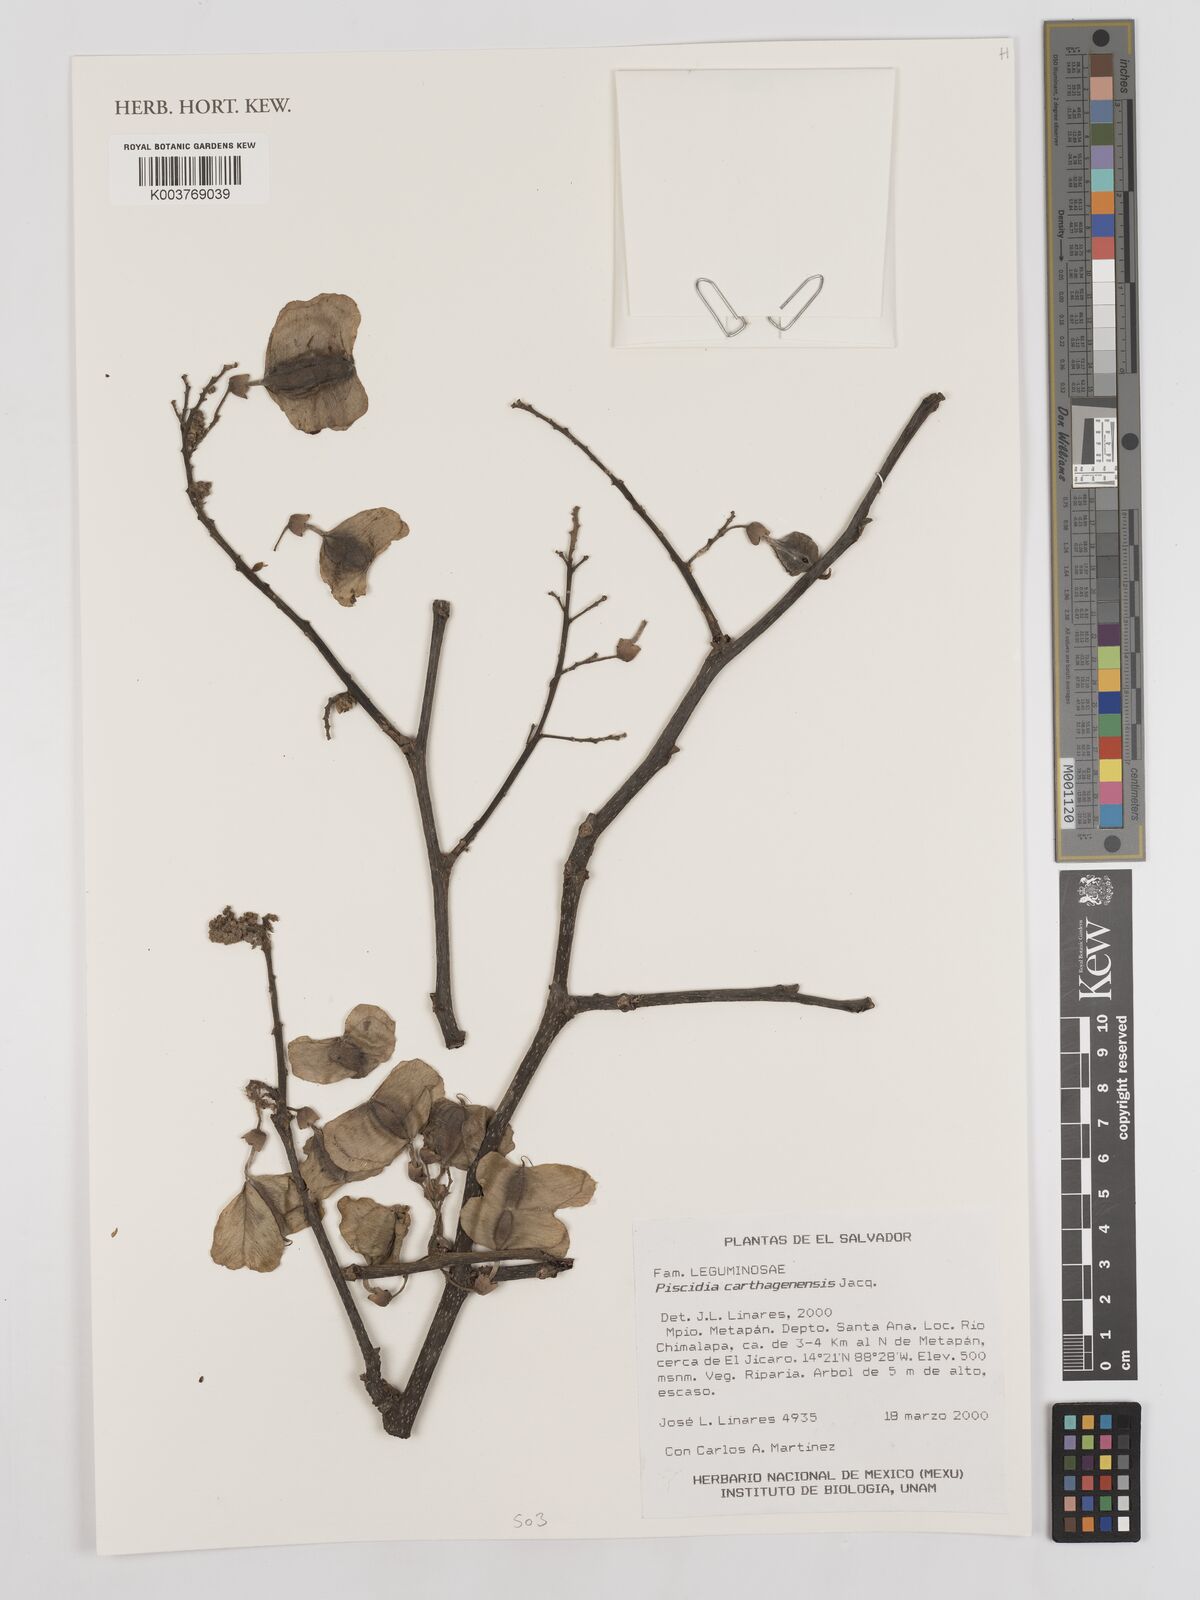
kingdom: Plantae
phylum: Tracheophyta
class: Magnoliopsida
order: Fabales
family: Fabaceae
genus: Piscidia
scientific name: Piscidia carthagenensis
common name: Stinkwood
